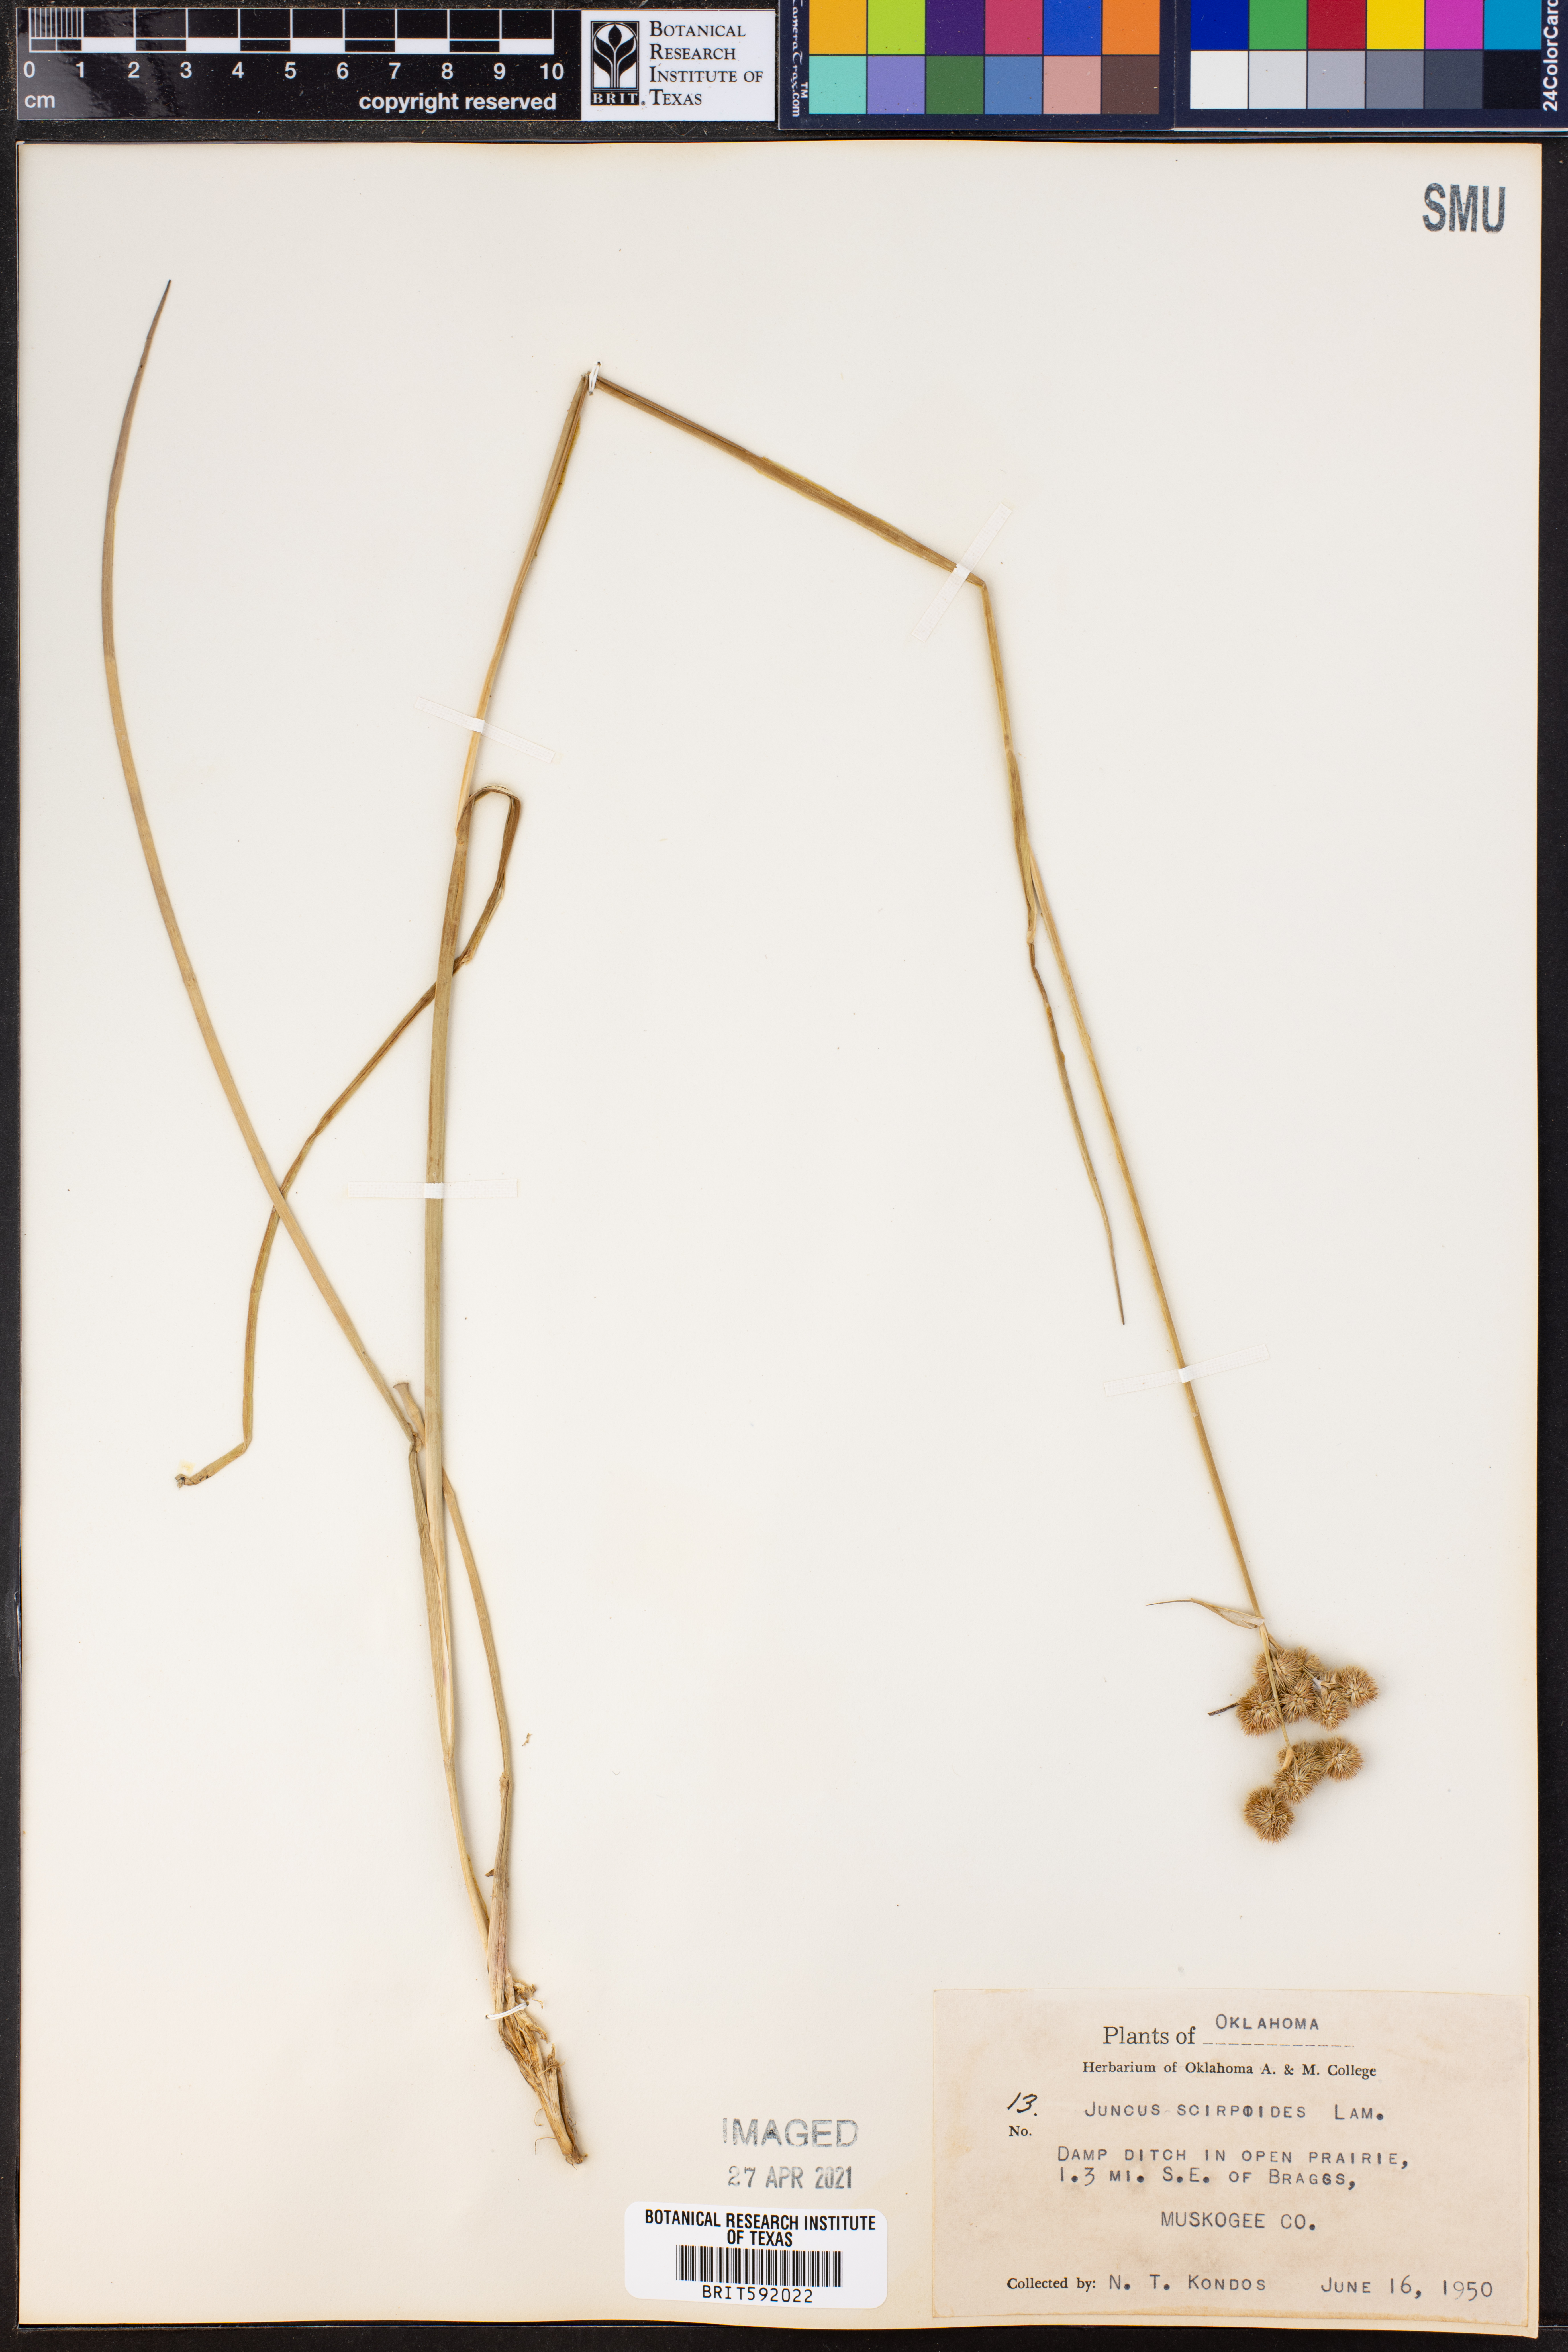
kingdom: Plantae
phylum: Tracheophyta
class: Liliopsida
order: Poales
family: Juncaceae
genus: Juncus
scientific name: Juncus scirpoides
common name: Needlepod rush
